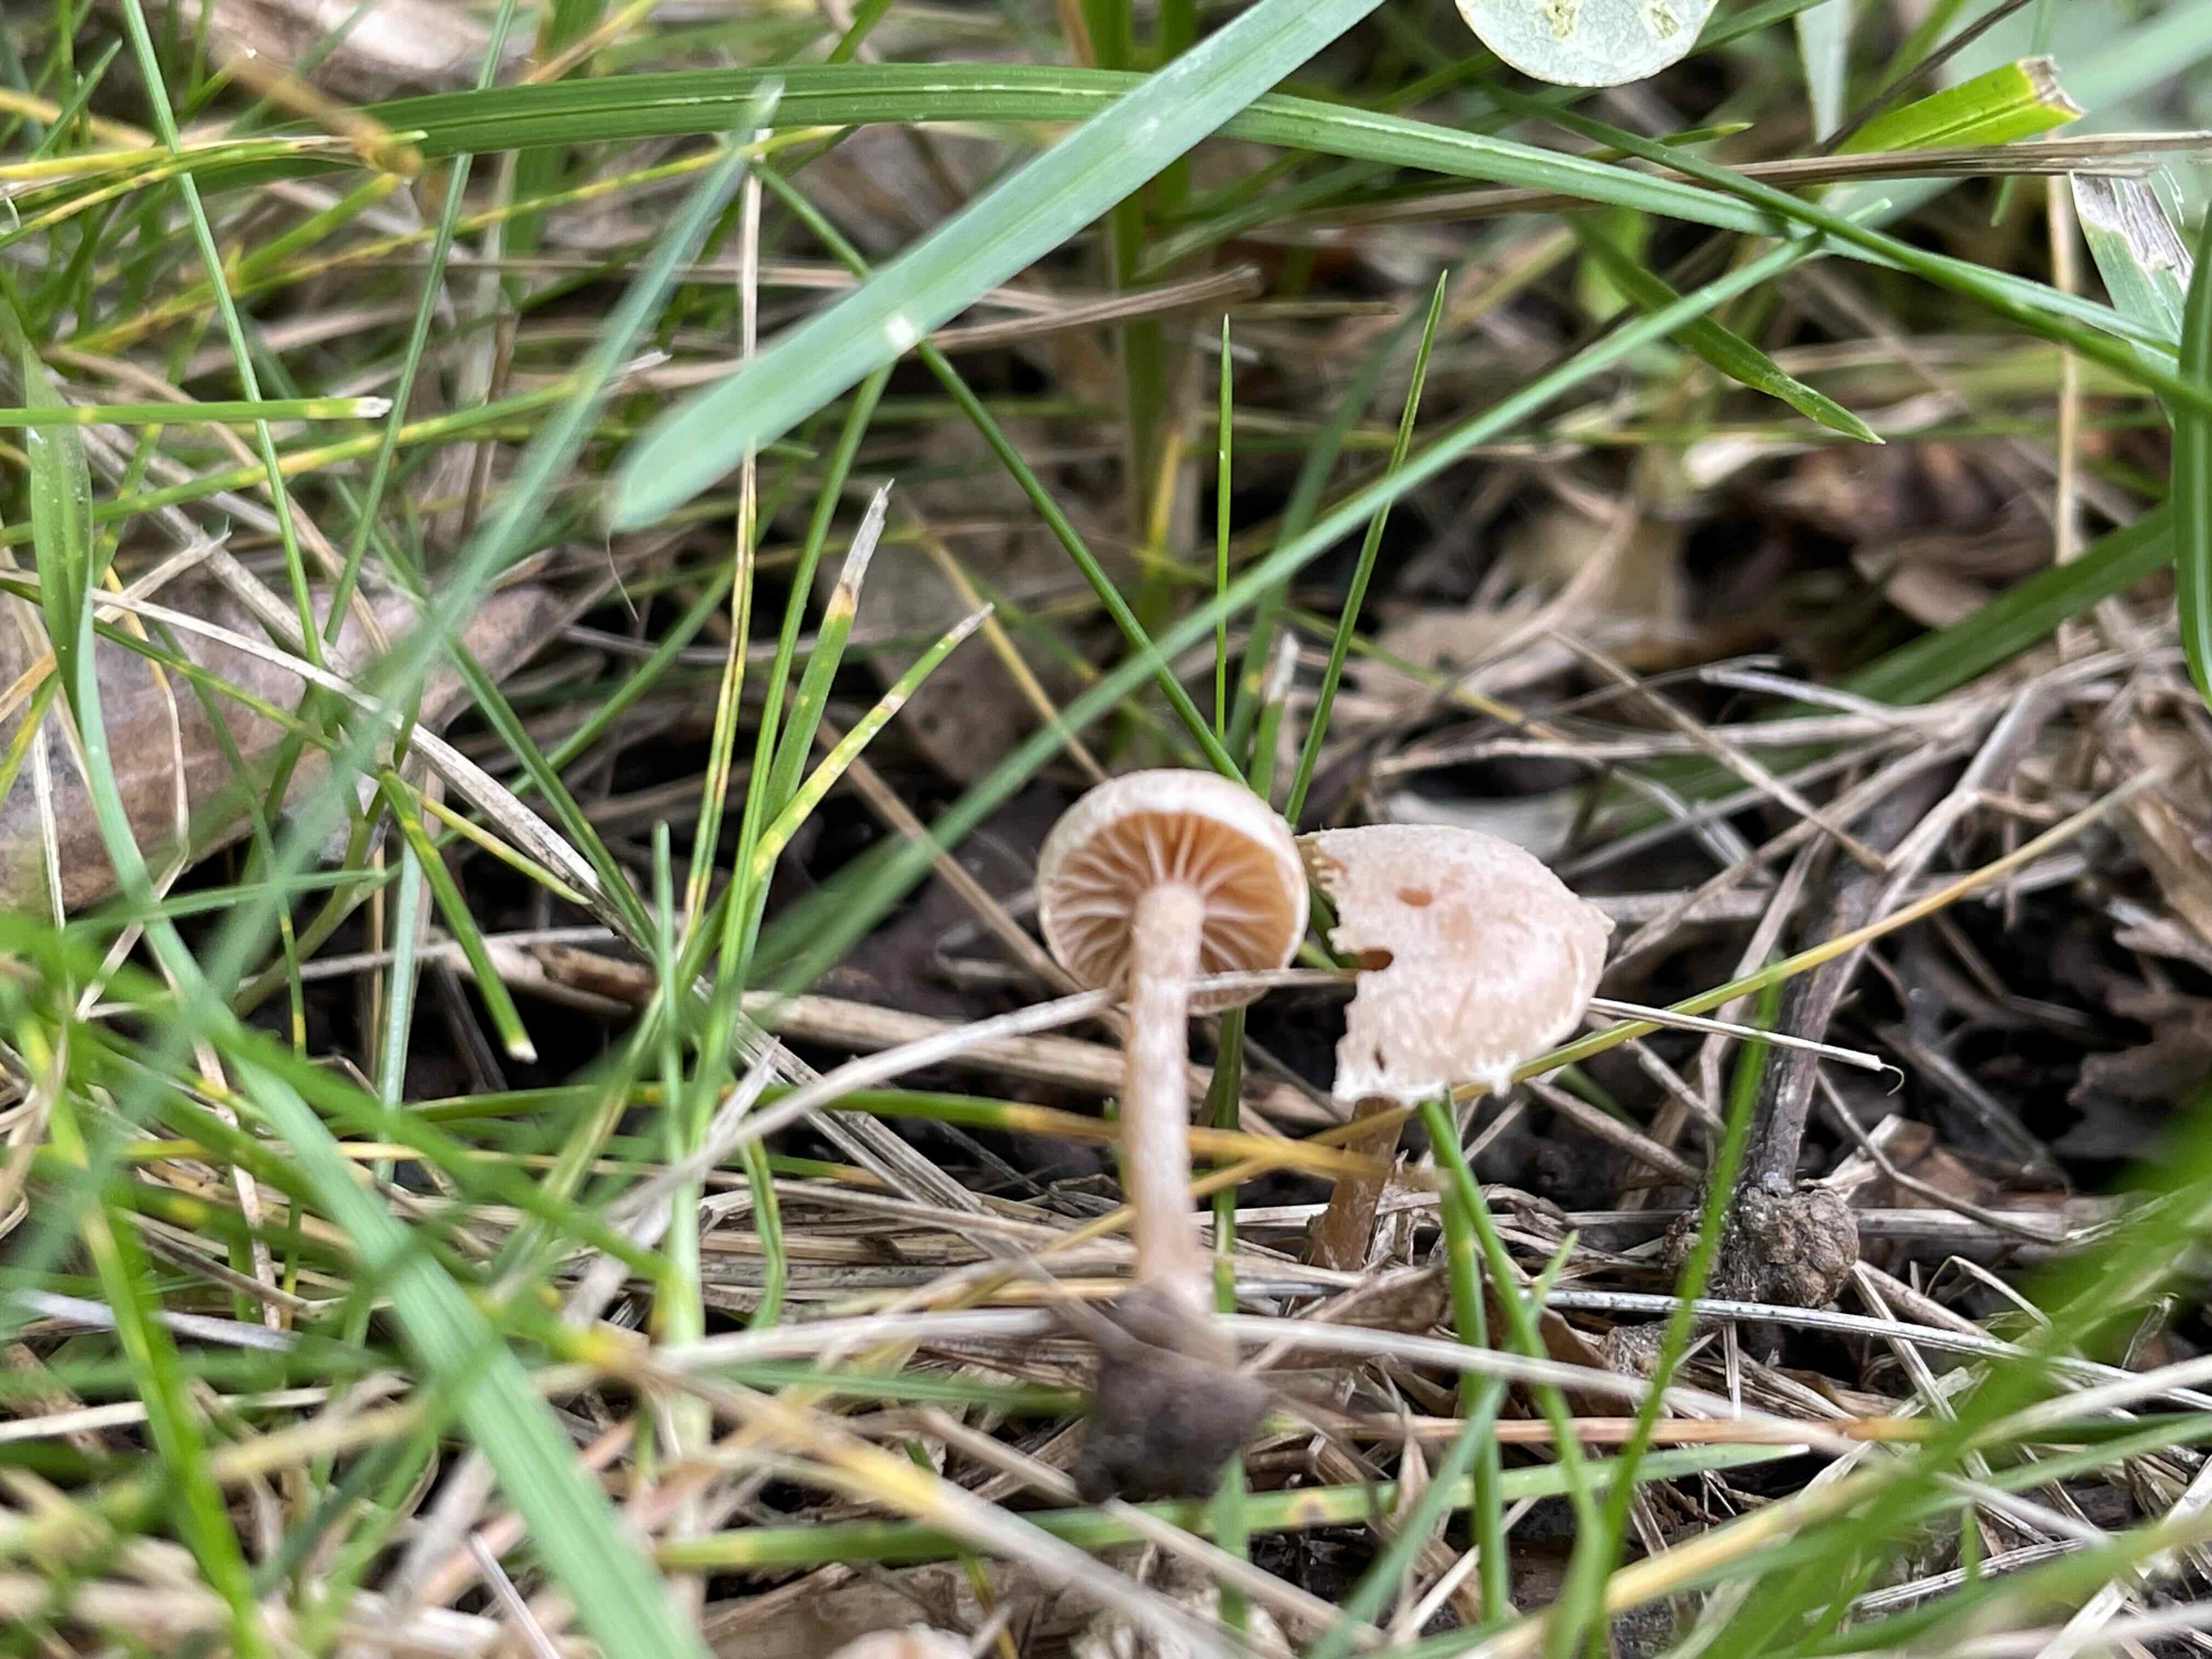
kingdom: Fungi
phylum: Basidiomycota
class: Agaricomycetes
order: Agaricales
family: Tubariaceae
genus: Tubaria
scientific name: Tubaria conspersa
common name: bleg fnughat
